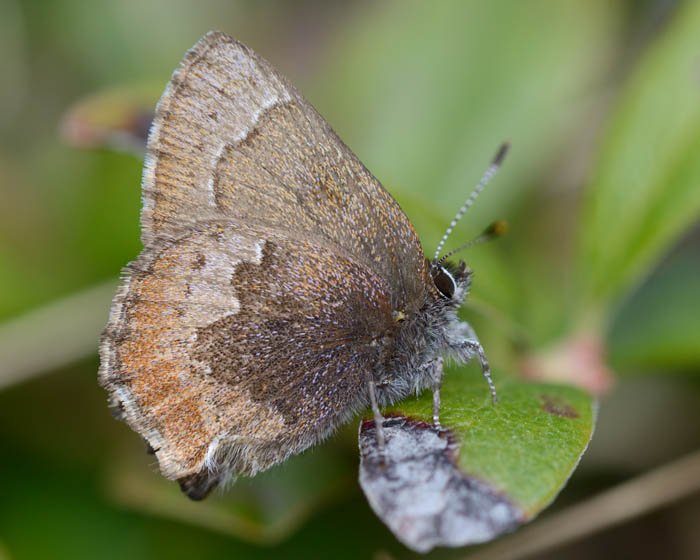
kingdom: Animalia
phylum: Arthropoda
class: Insecta
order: Lepidoptera
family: Lycaenidae
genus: Incisalia
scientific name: Incisalia irioides
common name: Brown Elfin
